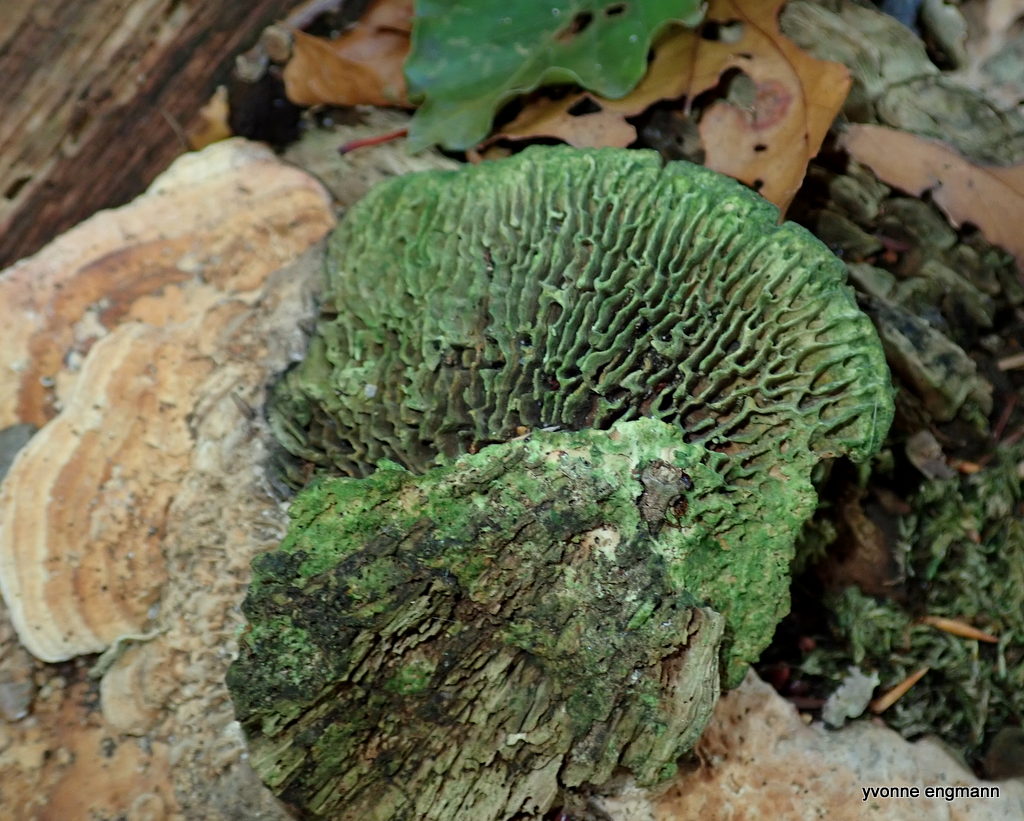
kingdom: Fungi
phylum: Basidiomycota
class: Agaricomycetes
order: Polyporales
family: Fomitopsidaceae
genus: Daedalea
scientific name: Daedalea quercina
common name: ege-labyrintsvamp
